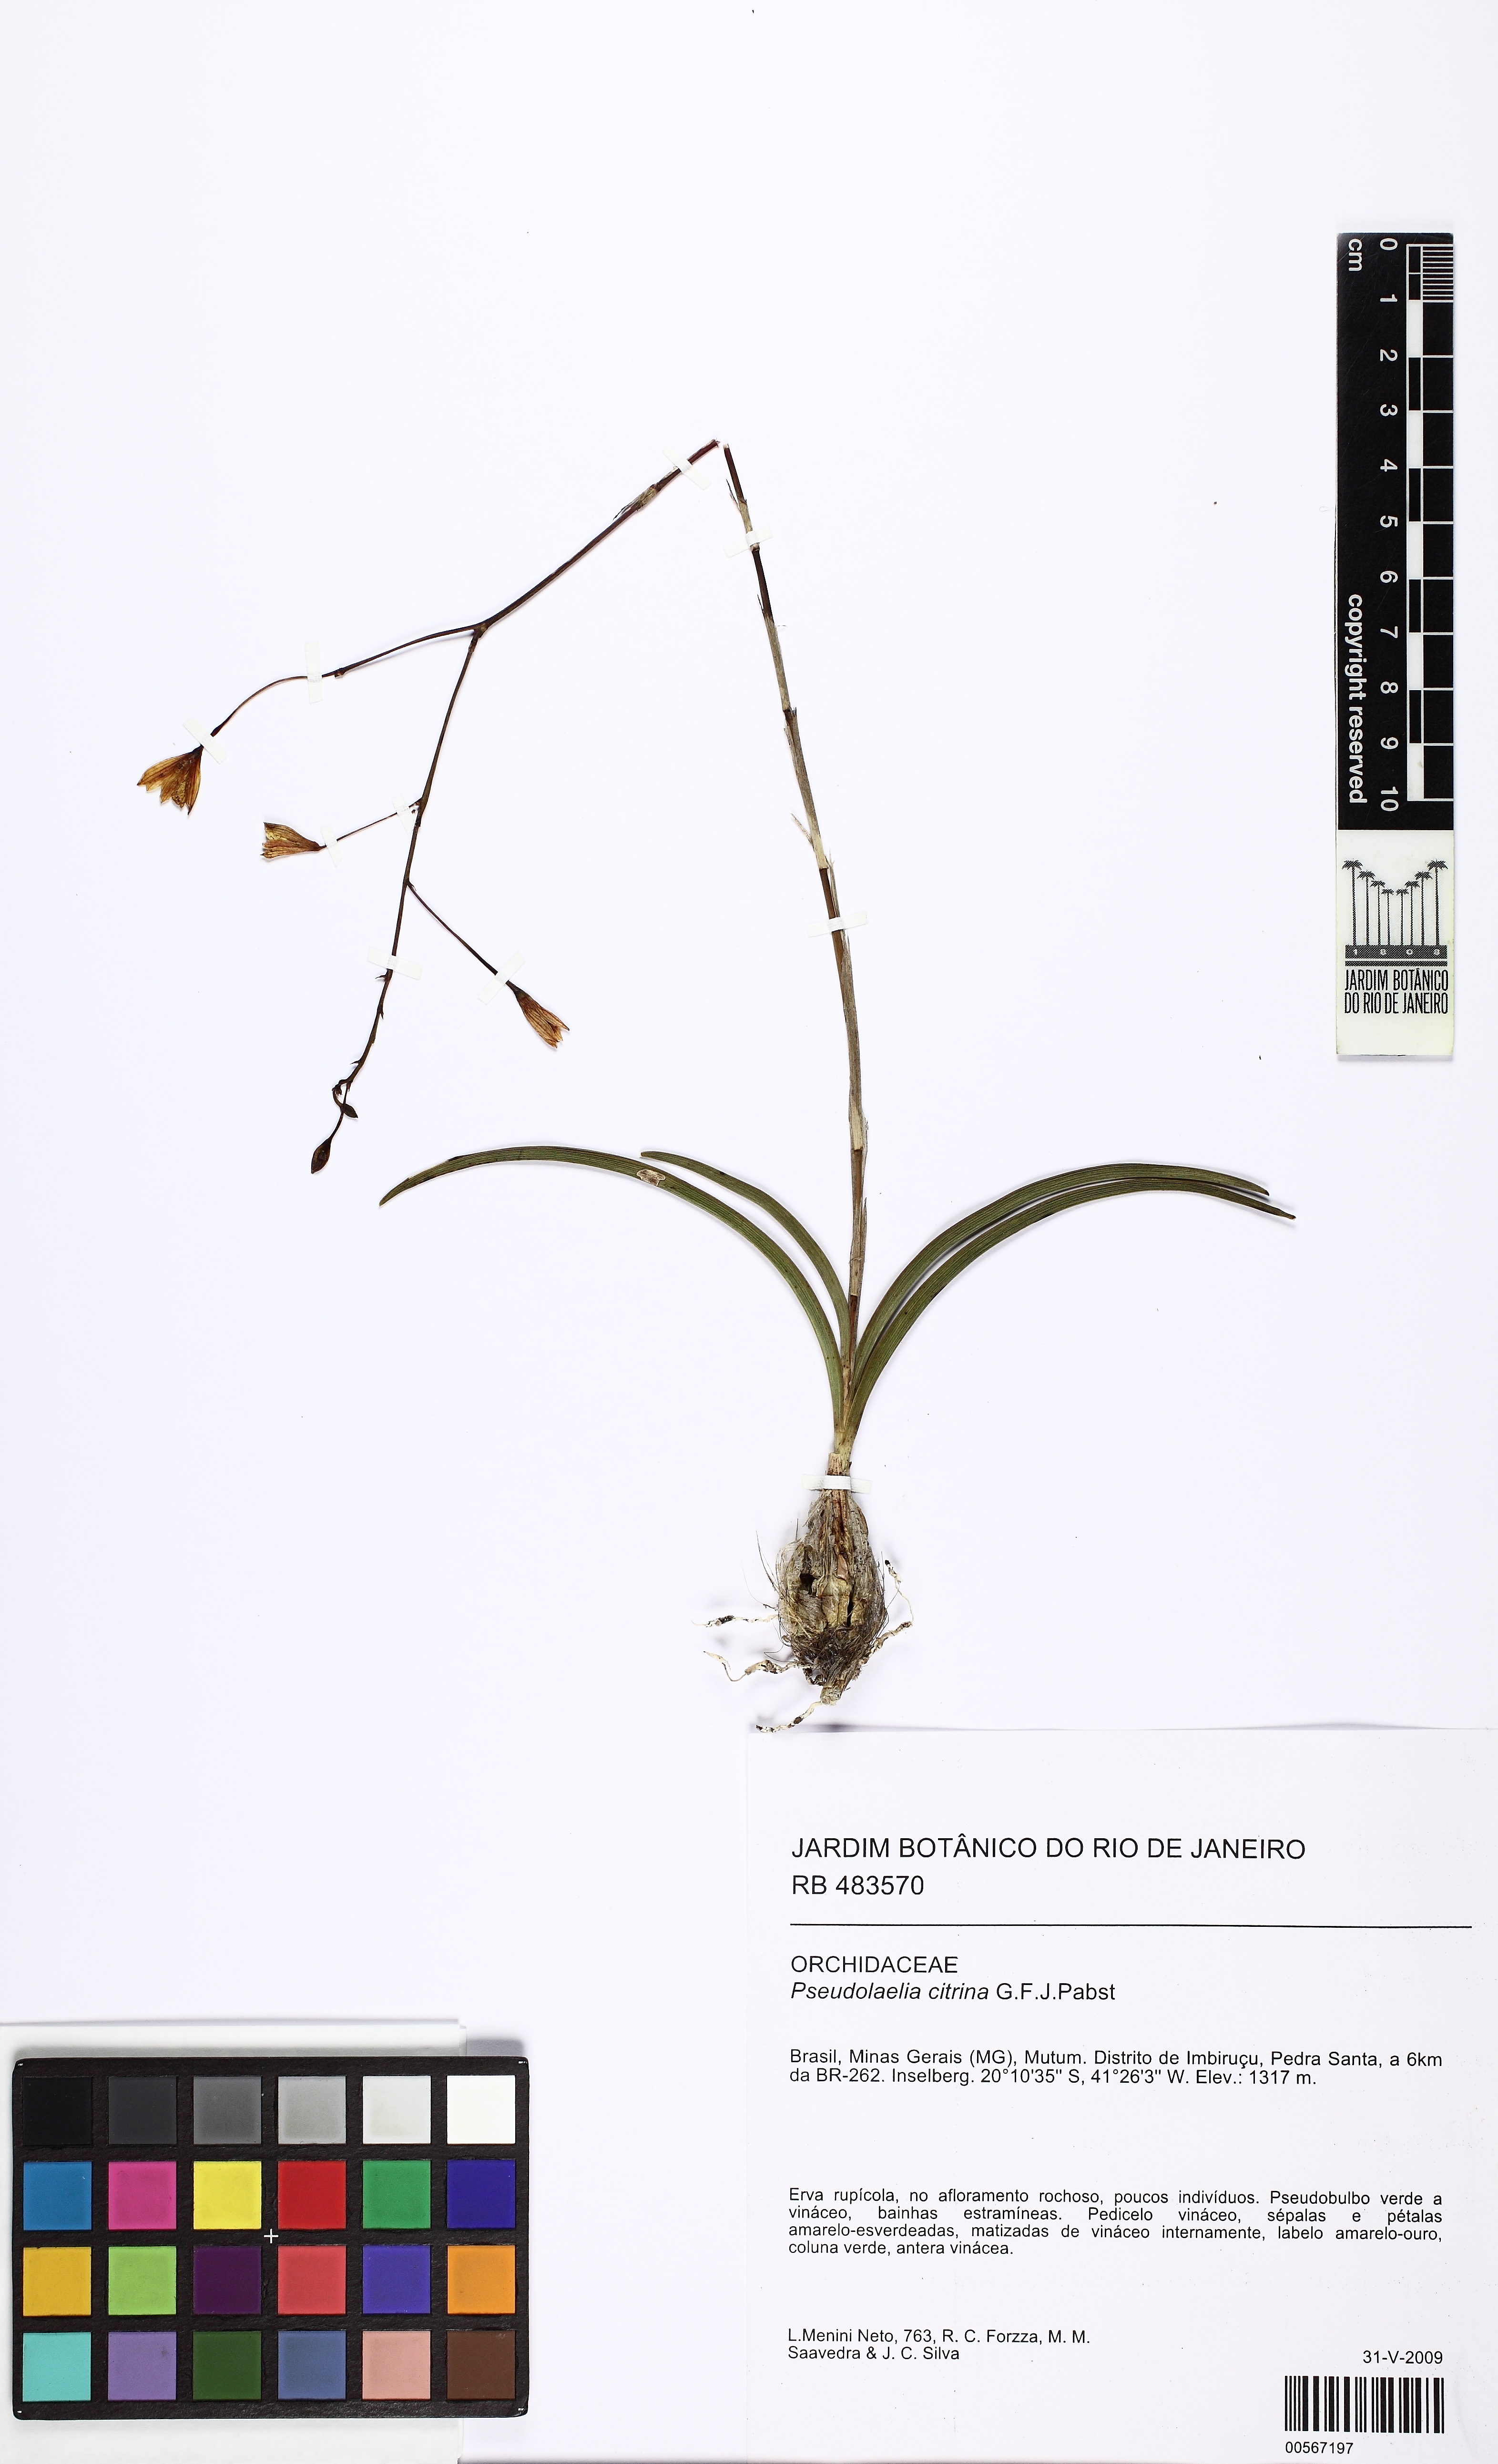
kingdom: Plantae
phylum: Tracheophyta
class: Liliopsida
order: Asparagales
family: Orchidaceae
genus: Pseudolaelia
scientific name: Pseudolaelia citrina
